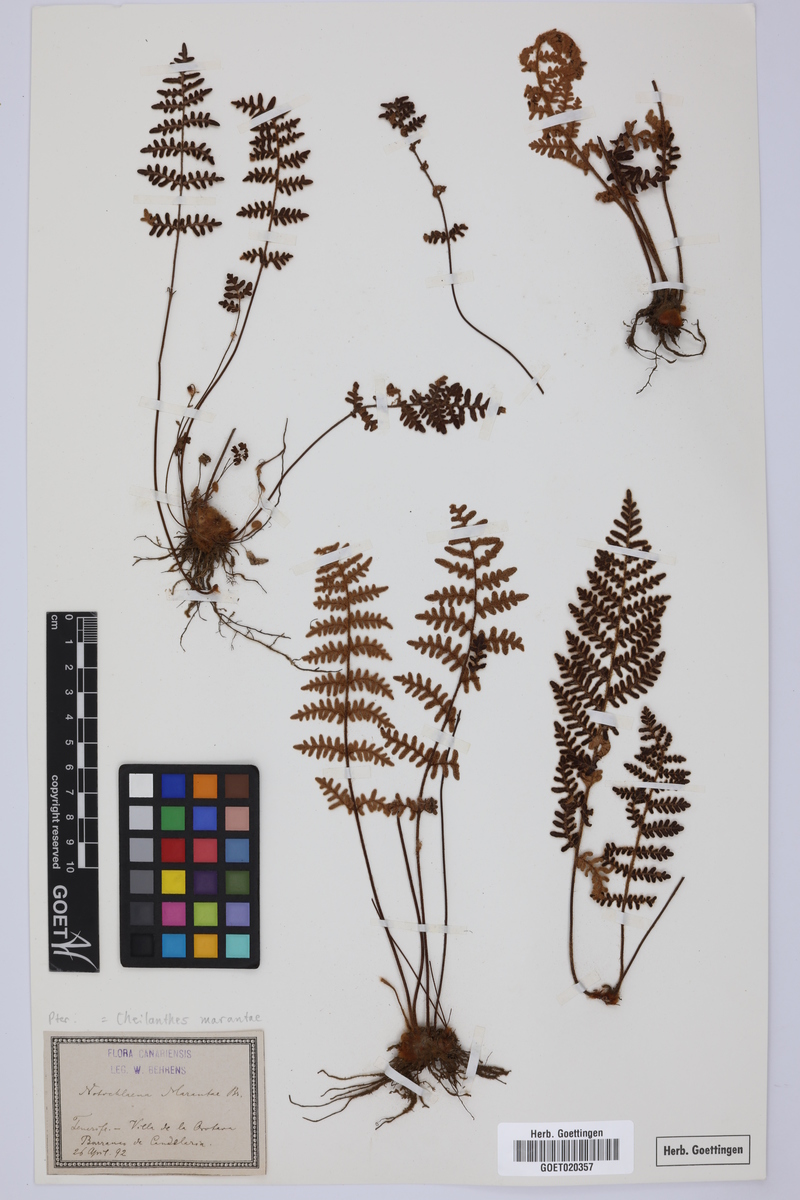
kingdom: Plantae
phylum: Tracheophyta
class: Polypodiopsida
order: Polypodiales
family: Pteridaceae
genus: Paragymnopteris
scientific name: Paragymnopteris marantae
